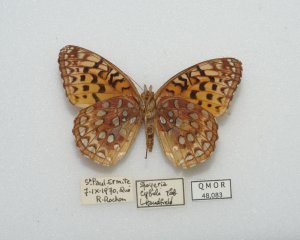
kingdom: Animalia
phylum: Arthropoda
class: Insecta
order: Lepidoptera
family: Nymphalidae
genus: Speyeria
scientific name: Speyeria aphrodite
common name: Aphrodite Fritillary
